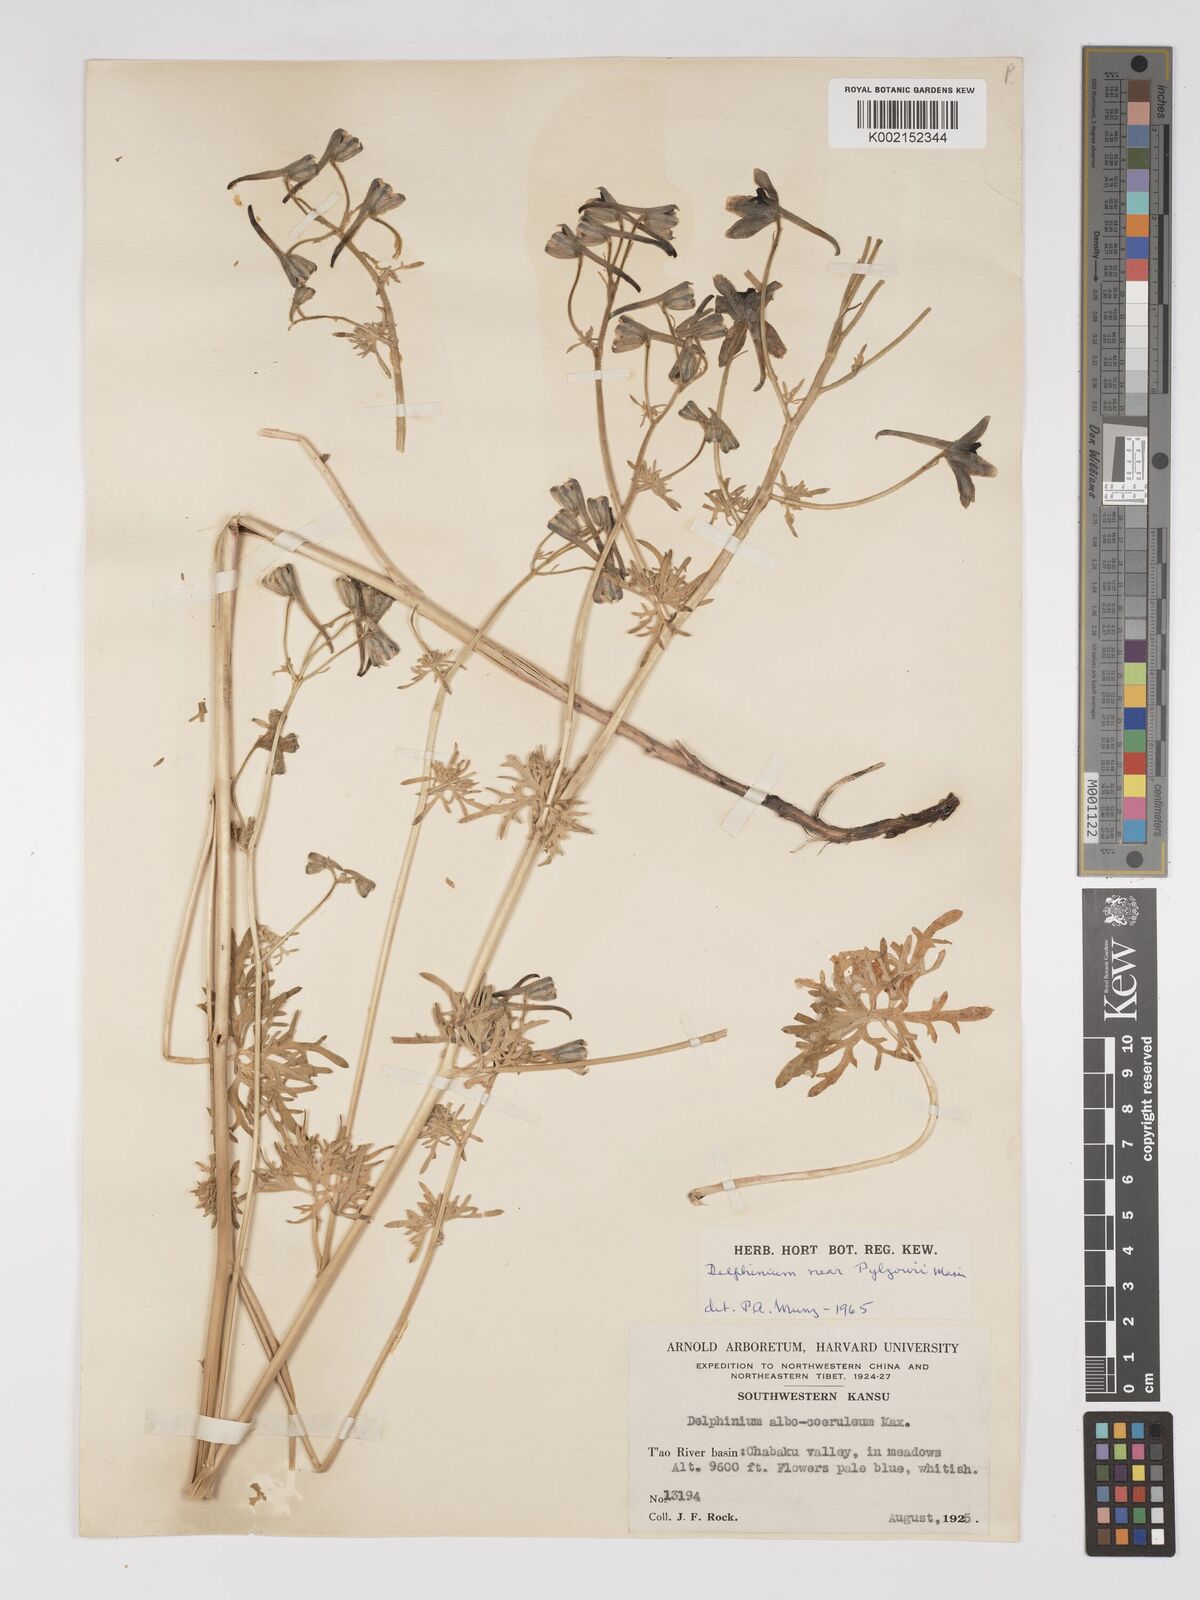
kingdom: Plantae
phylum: Tracheophyta
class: Magnoliopsida
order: Ranunculales
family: Ranunculaceae
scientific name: Ranunculaceae
